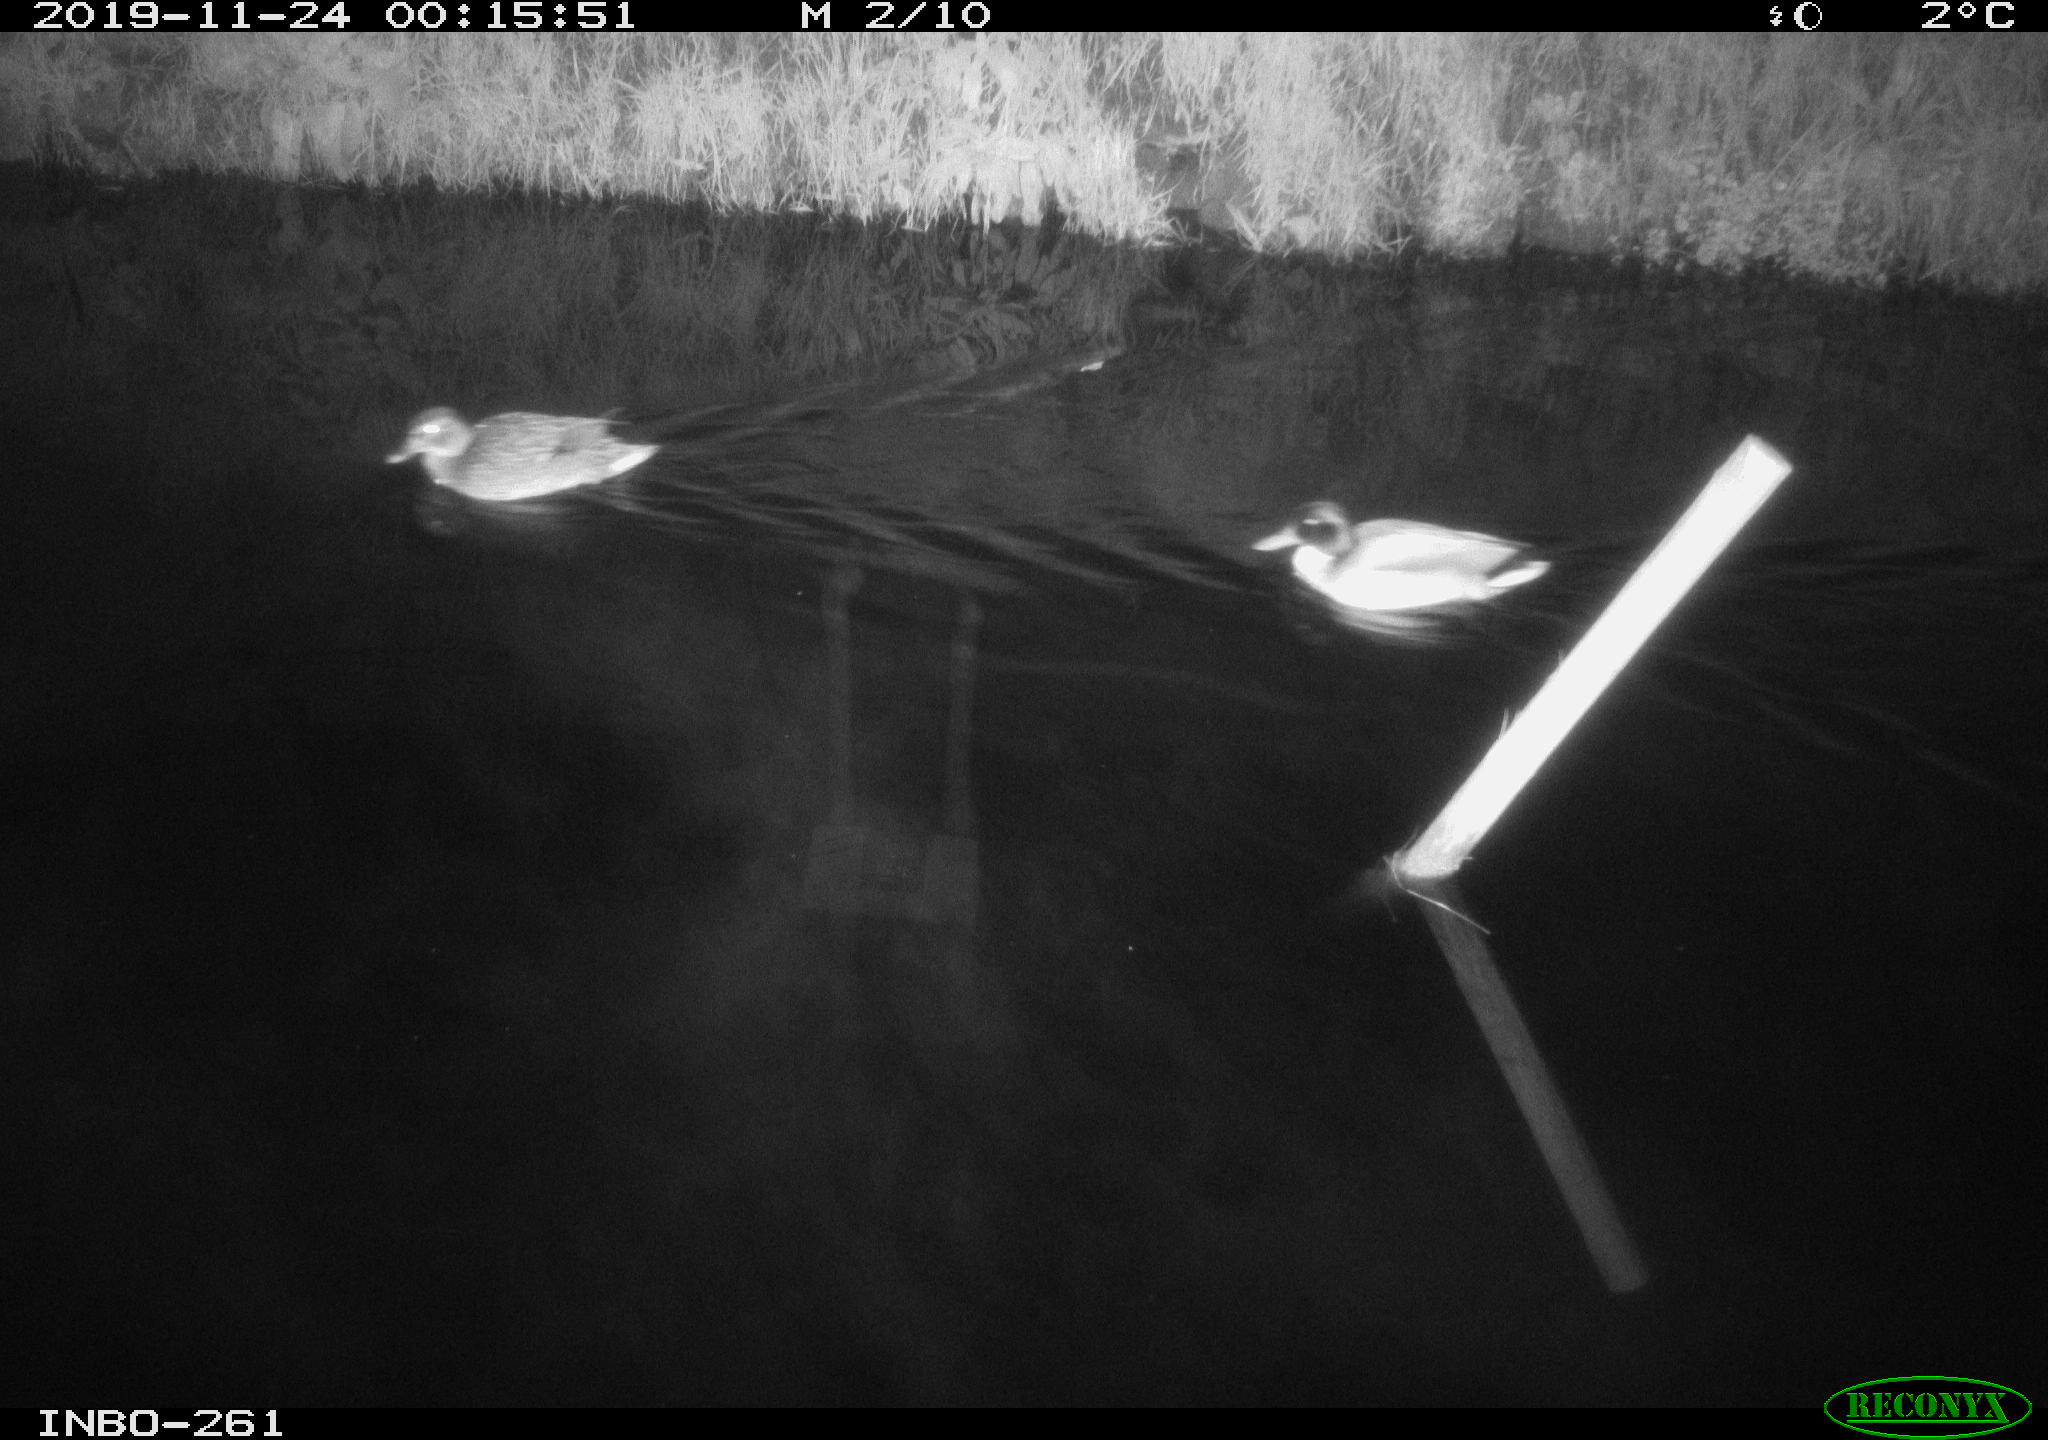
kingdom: Animalia
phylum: Chordata
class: Aves
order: Anseriformes
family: Anatidae
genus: Anas
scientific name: Anas platyrhynchos
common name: Mallard
